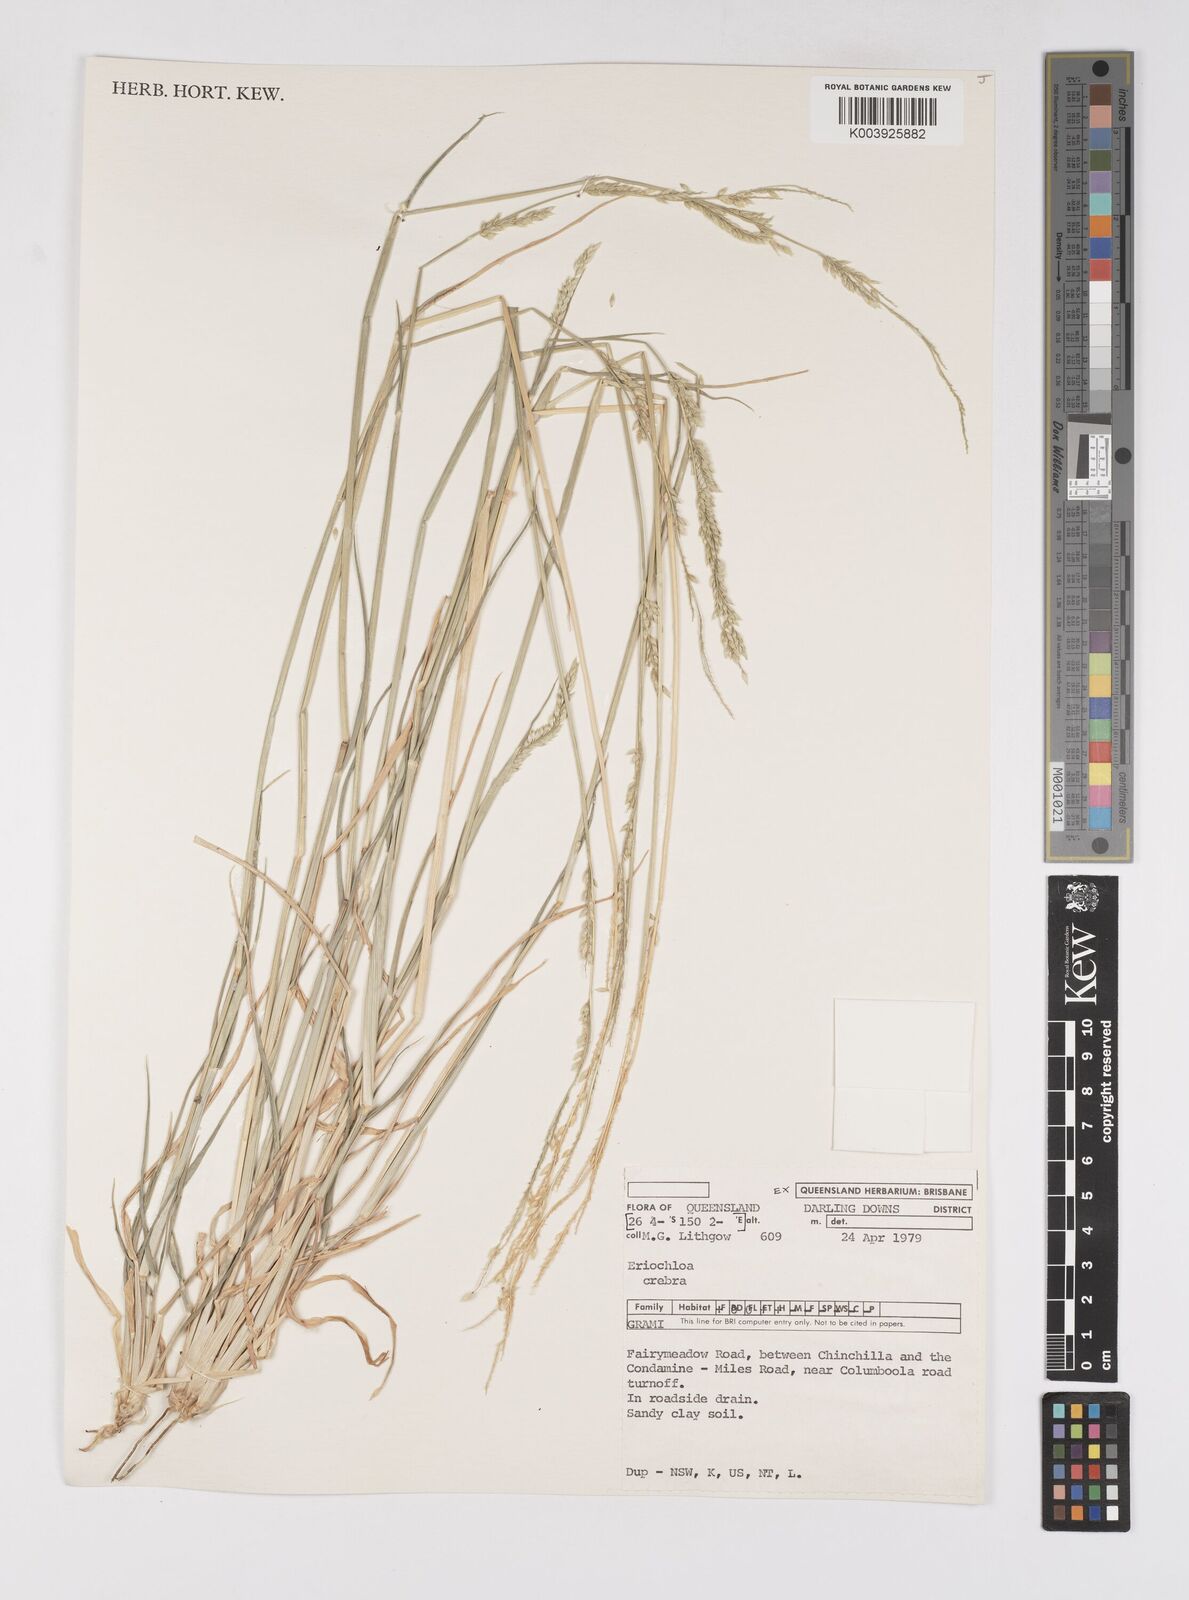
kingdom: Plantae
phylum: Tracheophyta
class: Liliopsida
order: Poales
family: Poaceae
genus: Eriochloa
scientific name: Eriochloa crebra
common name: Cup grass
